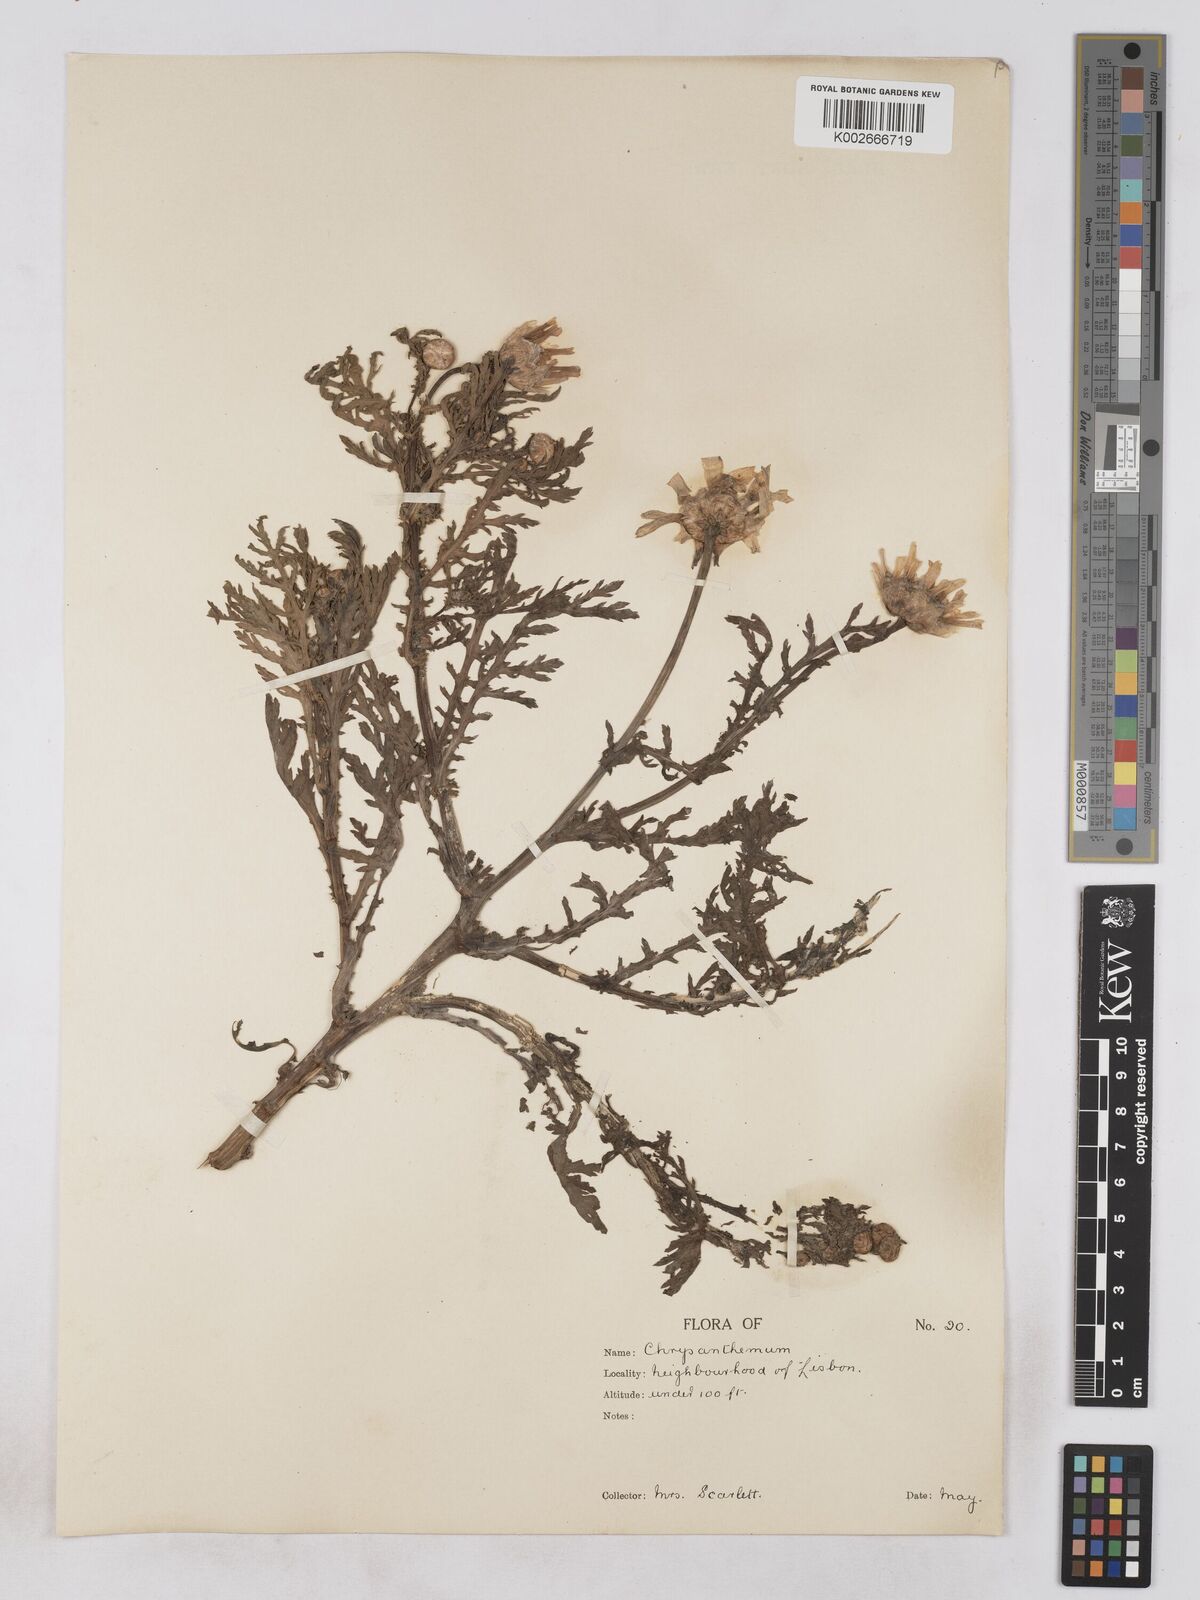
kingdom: Plantae
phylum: Tracheophyta
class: Magnoliopsida
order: Asterales
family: Asteraceae
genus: Glebionis
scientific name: Glebionis coronaria
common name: Crowndaisy
